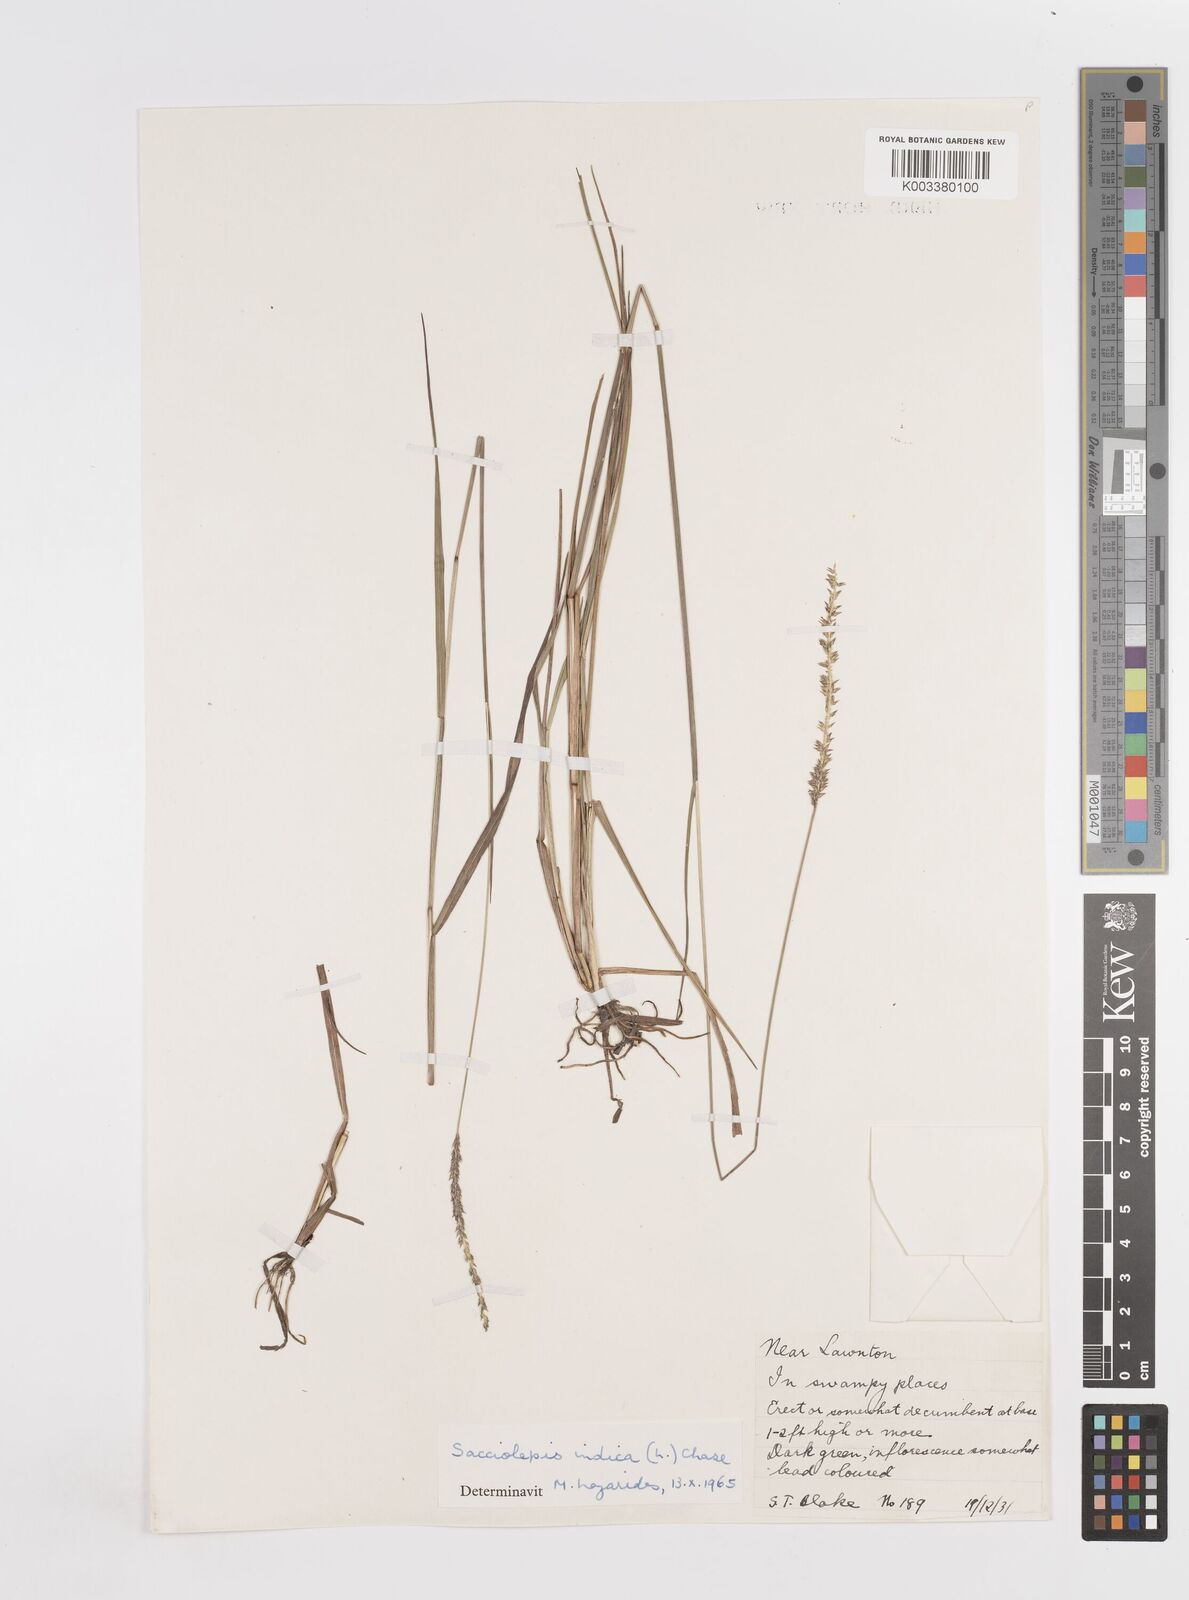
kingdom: Plantae
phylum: Tracheophyta
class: Liliopsida
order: Poales
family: Poaceae
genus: Sacciolepis
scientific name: Sacciolepis indica
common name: Glenwoodgrass
